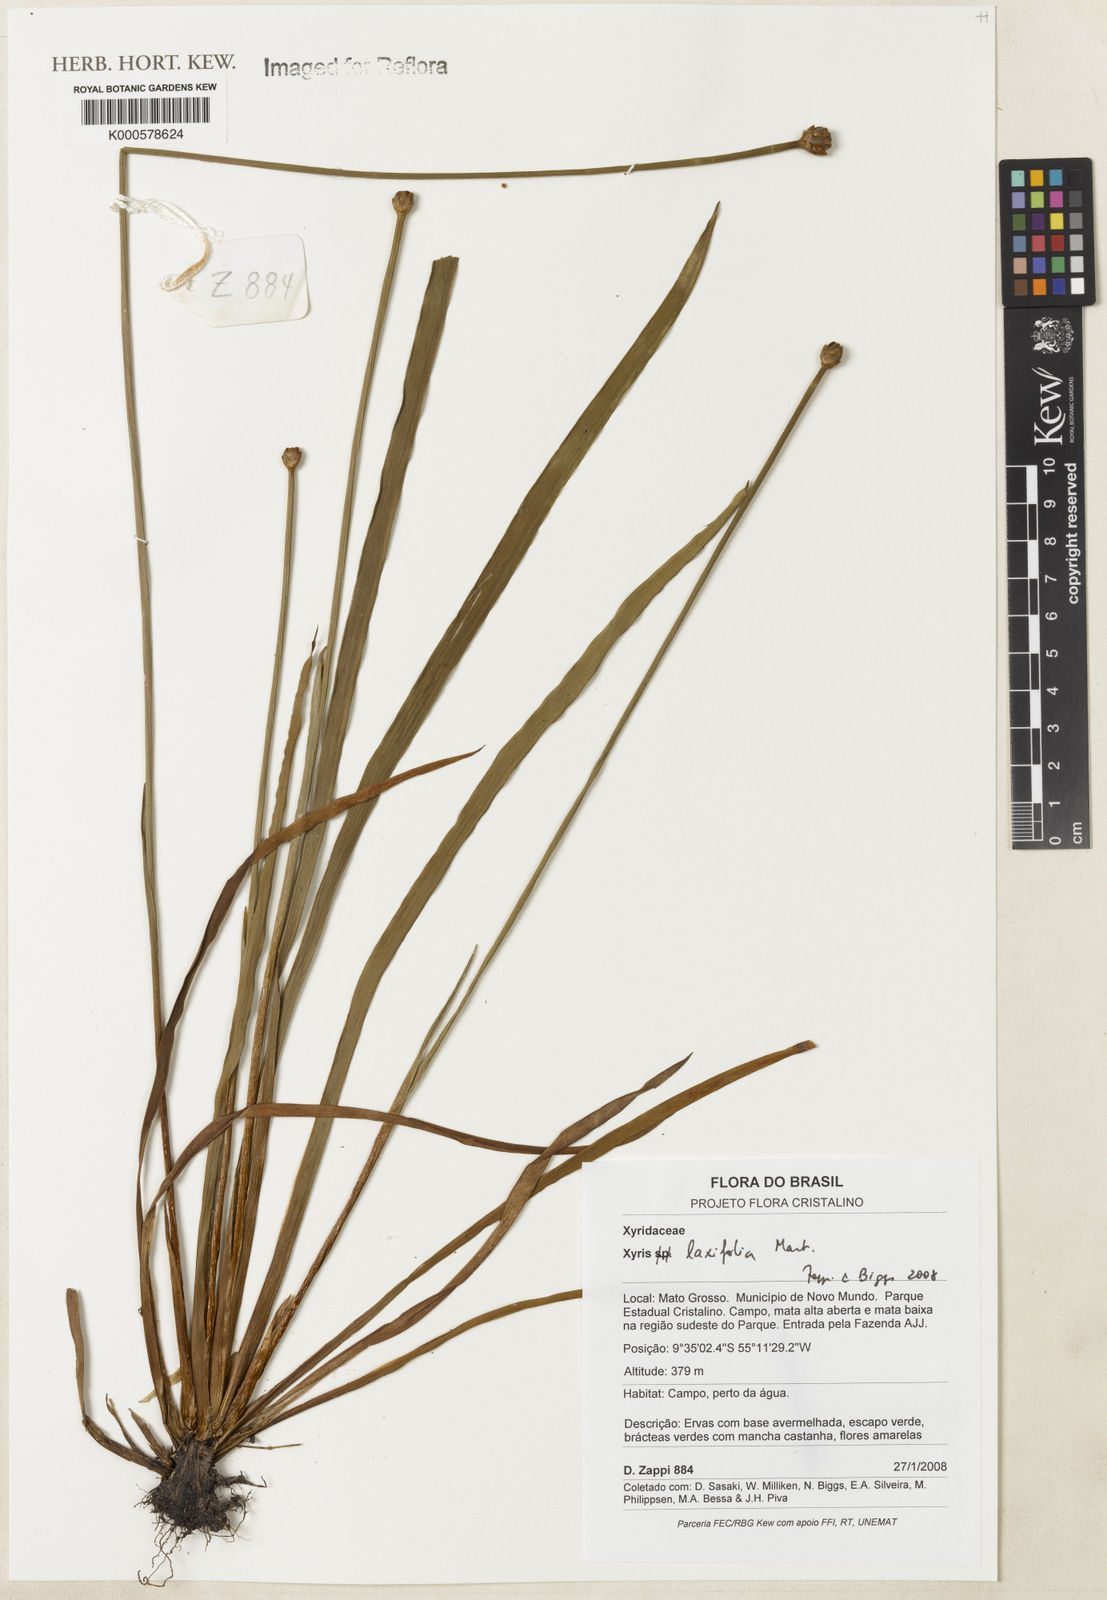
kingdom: Plantae
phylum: Tracheophyta
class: Liliopsida
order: Poales
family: Xyridaceae
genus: Xyris
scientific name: Xyris laxifolia
